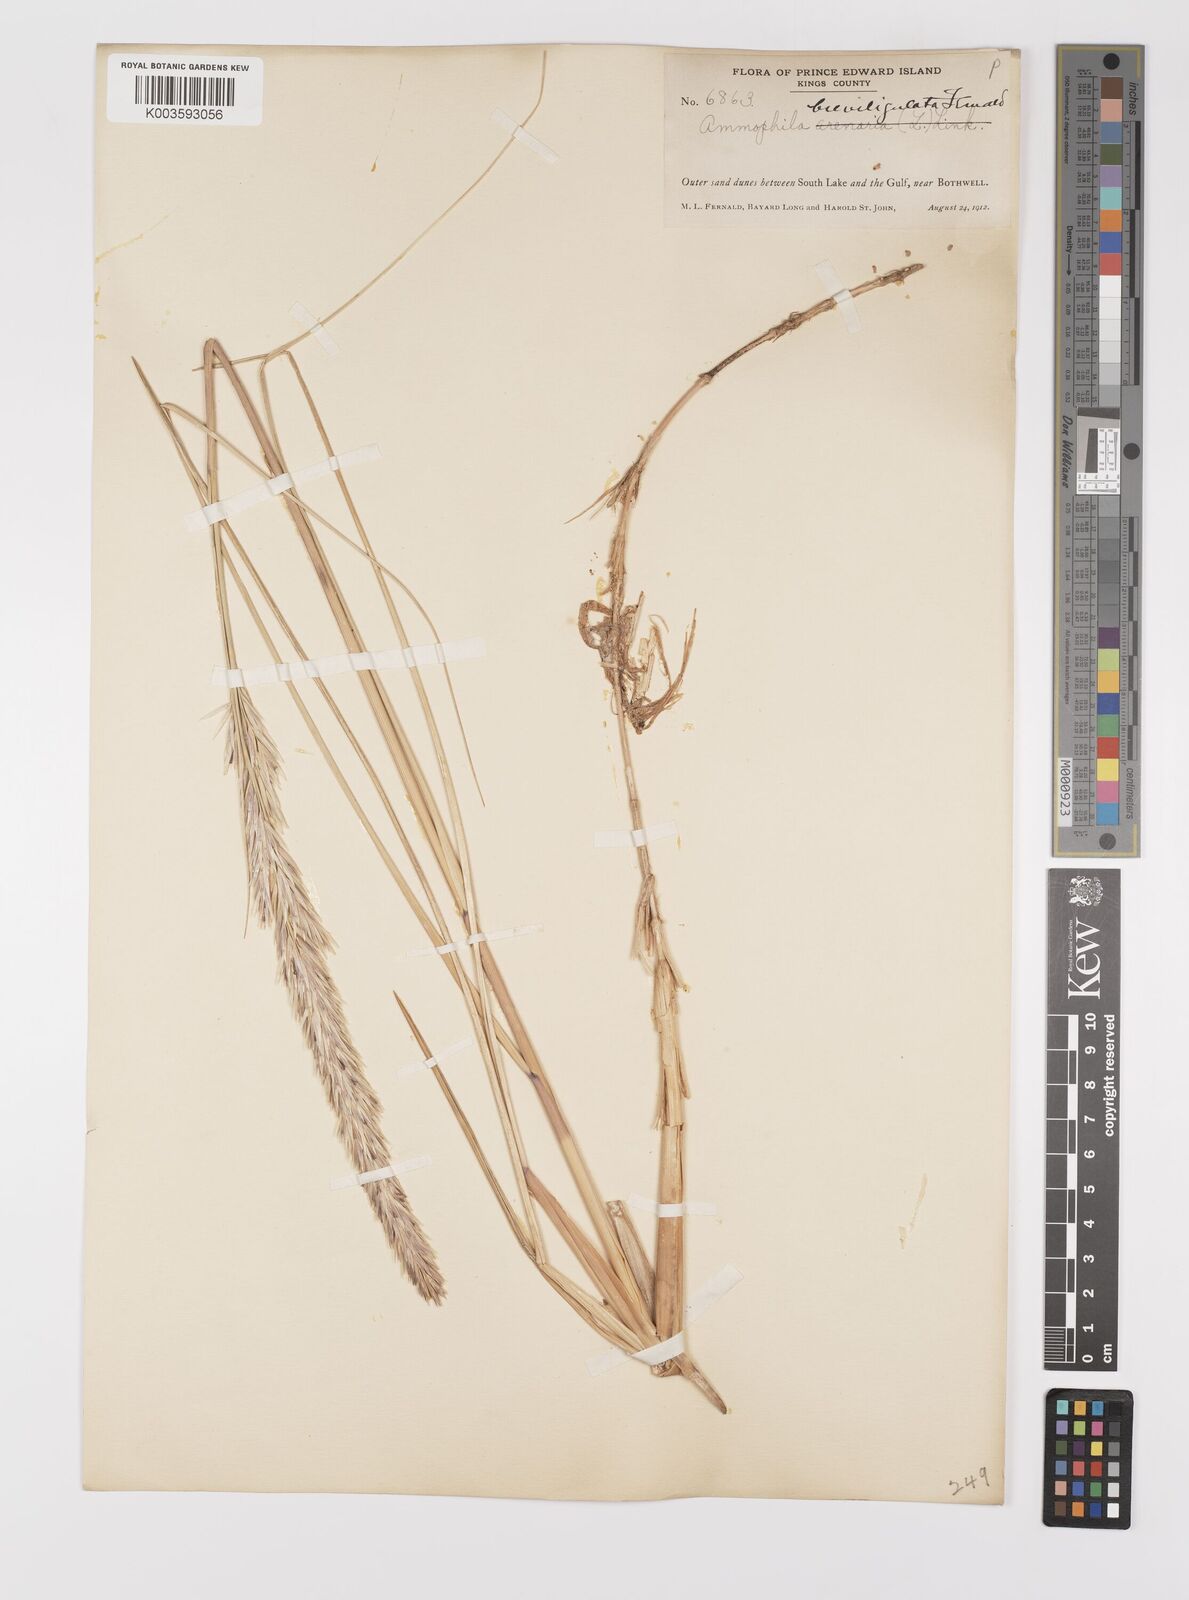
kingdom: Plantae
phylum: Tracheophyta
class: Liliopsida
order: Poales
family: Poaceae
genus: Calamagrostis
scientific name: Calamagrostis breviligulata
